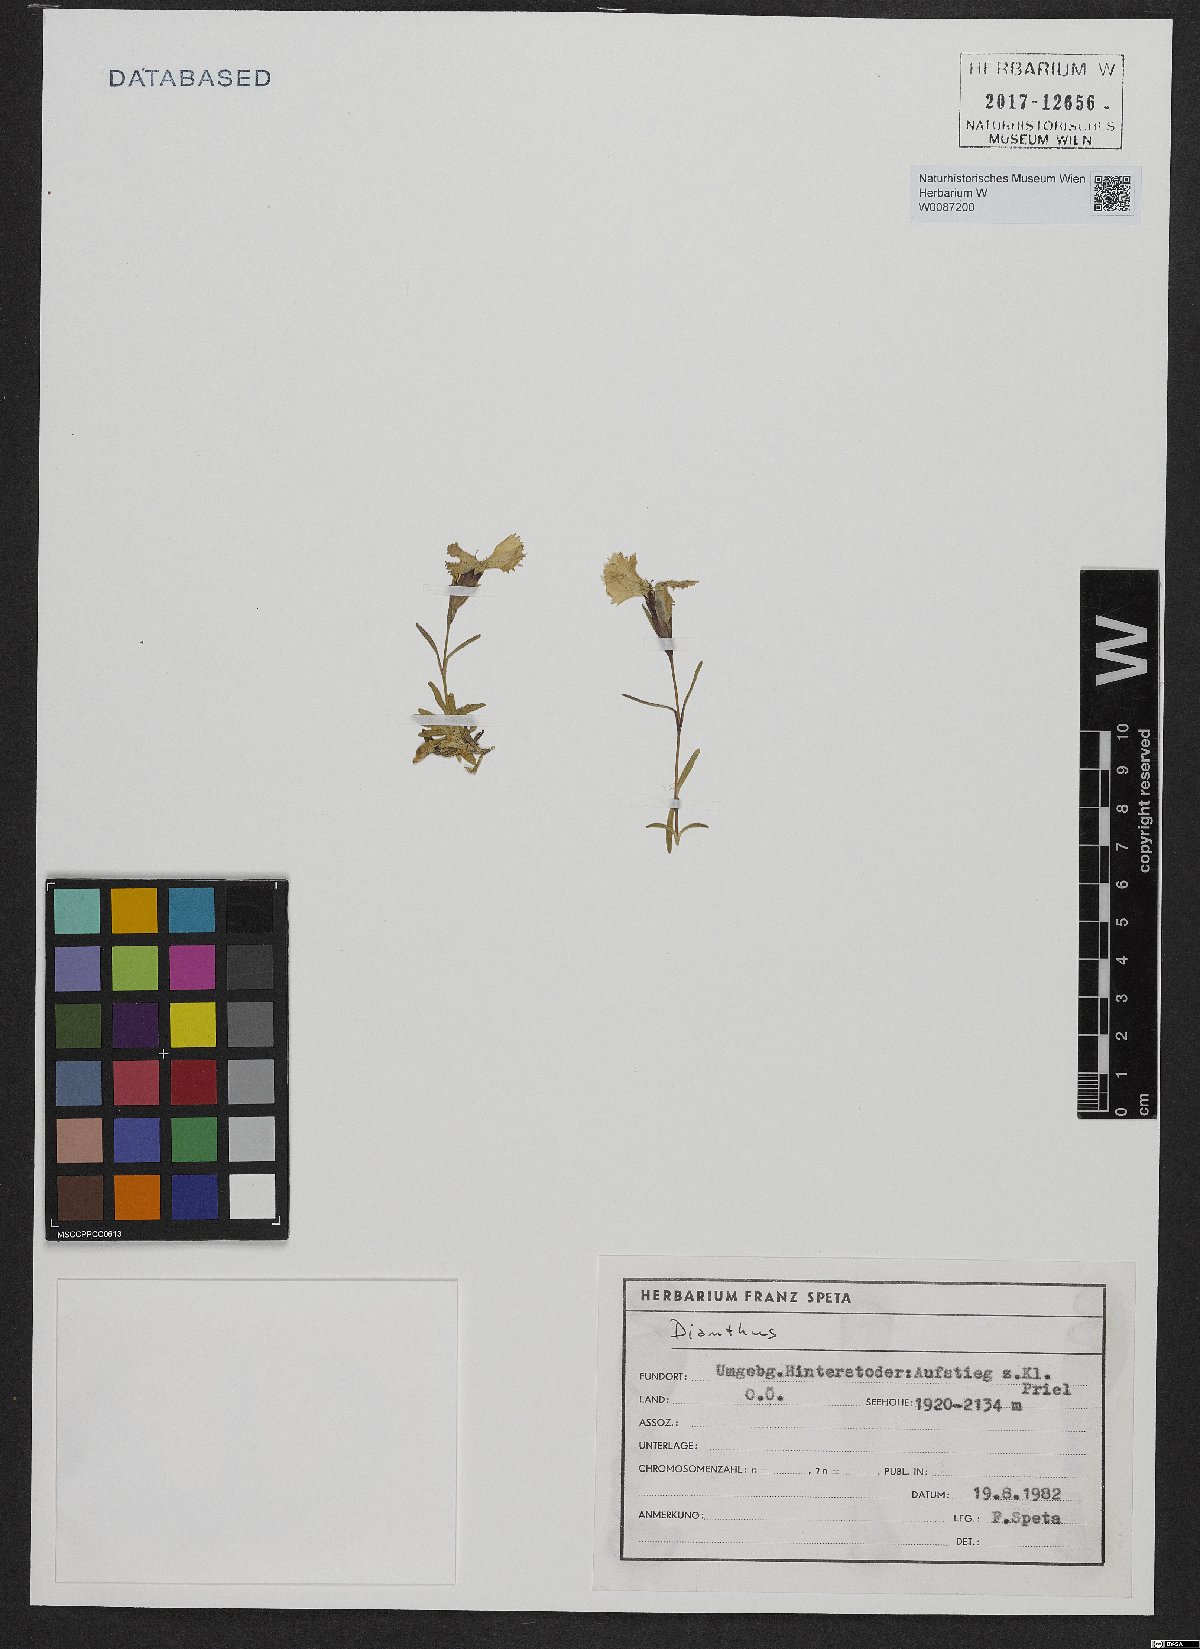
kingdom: Plantae
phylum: Tracheophyta
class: Magnoliopsida
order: Caryophyllales
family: Caryophyllaceae
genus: Dianthus
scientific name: Dianthus alpinus
